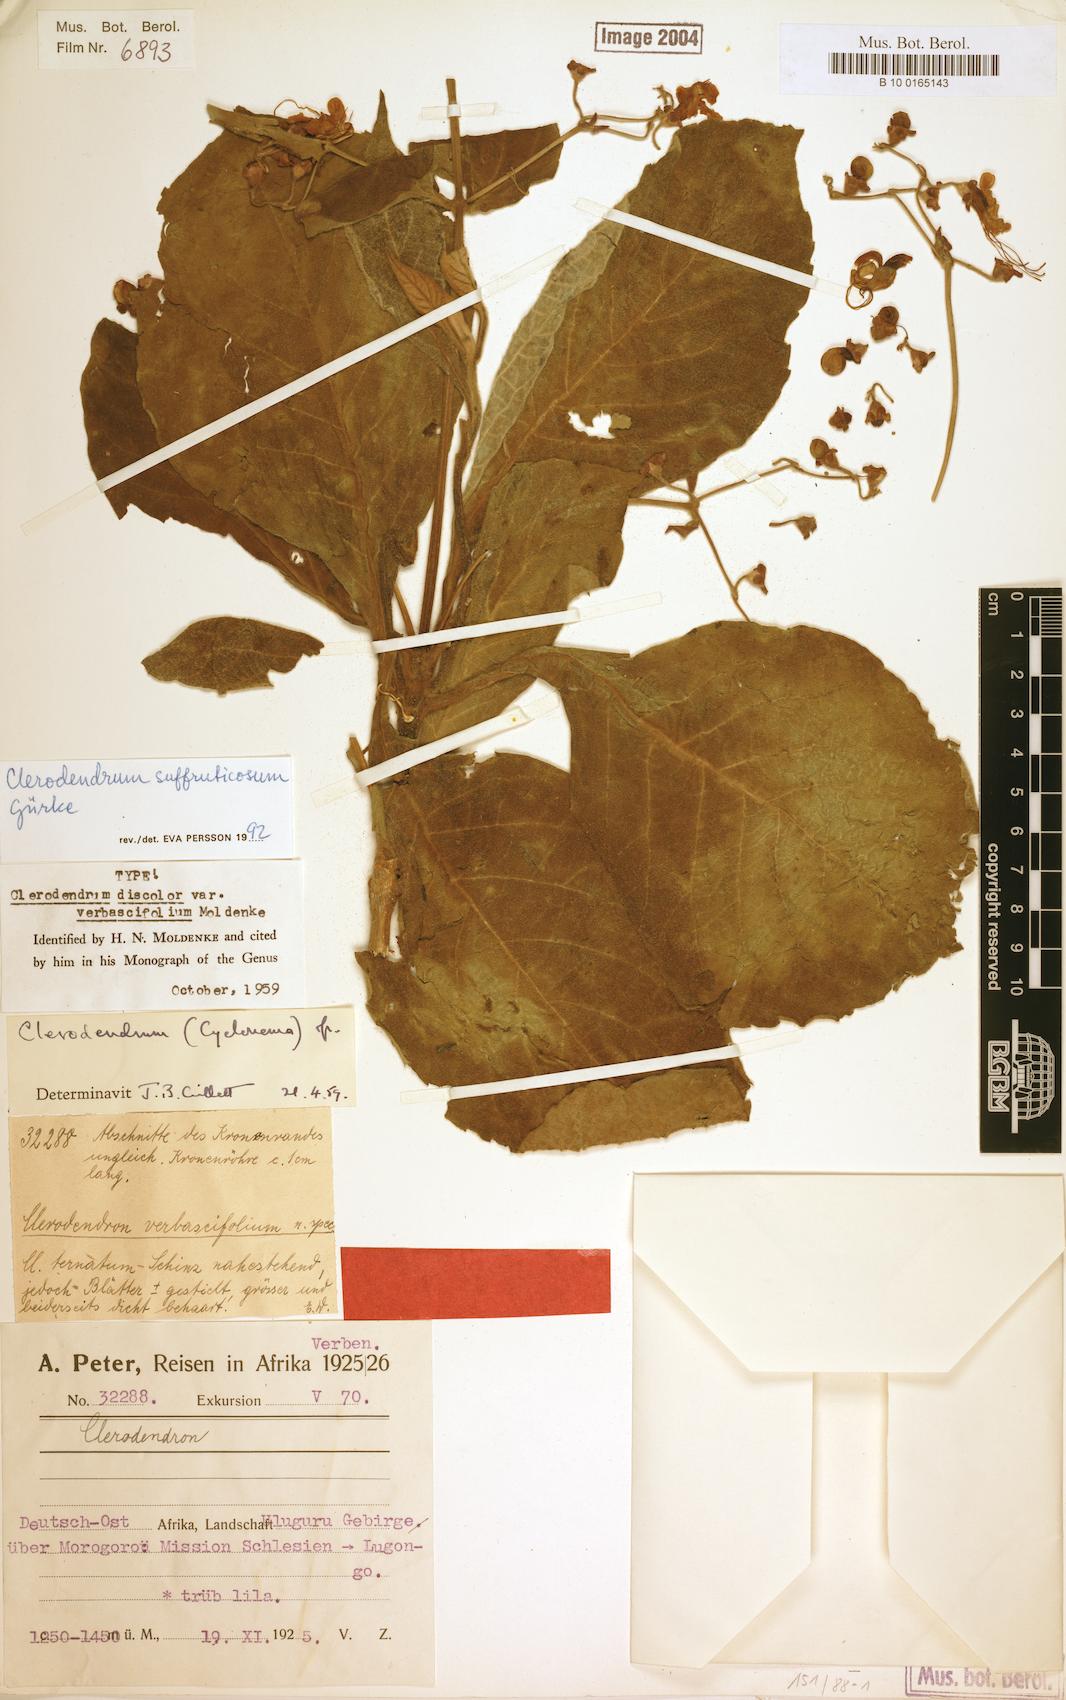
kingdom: Plantae
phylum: Tracheophyta
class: Magnoliopsida
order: Lamiales
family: Lamiaceae
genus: Rotheca
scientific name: Rotheca suffruticosa
